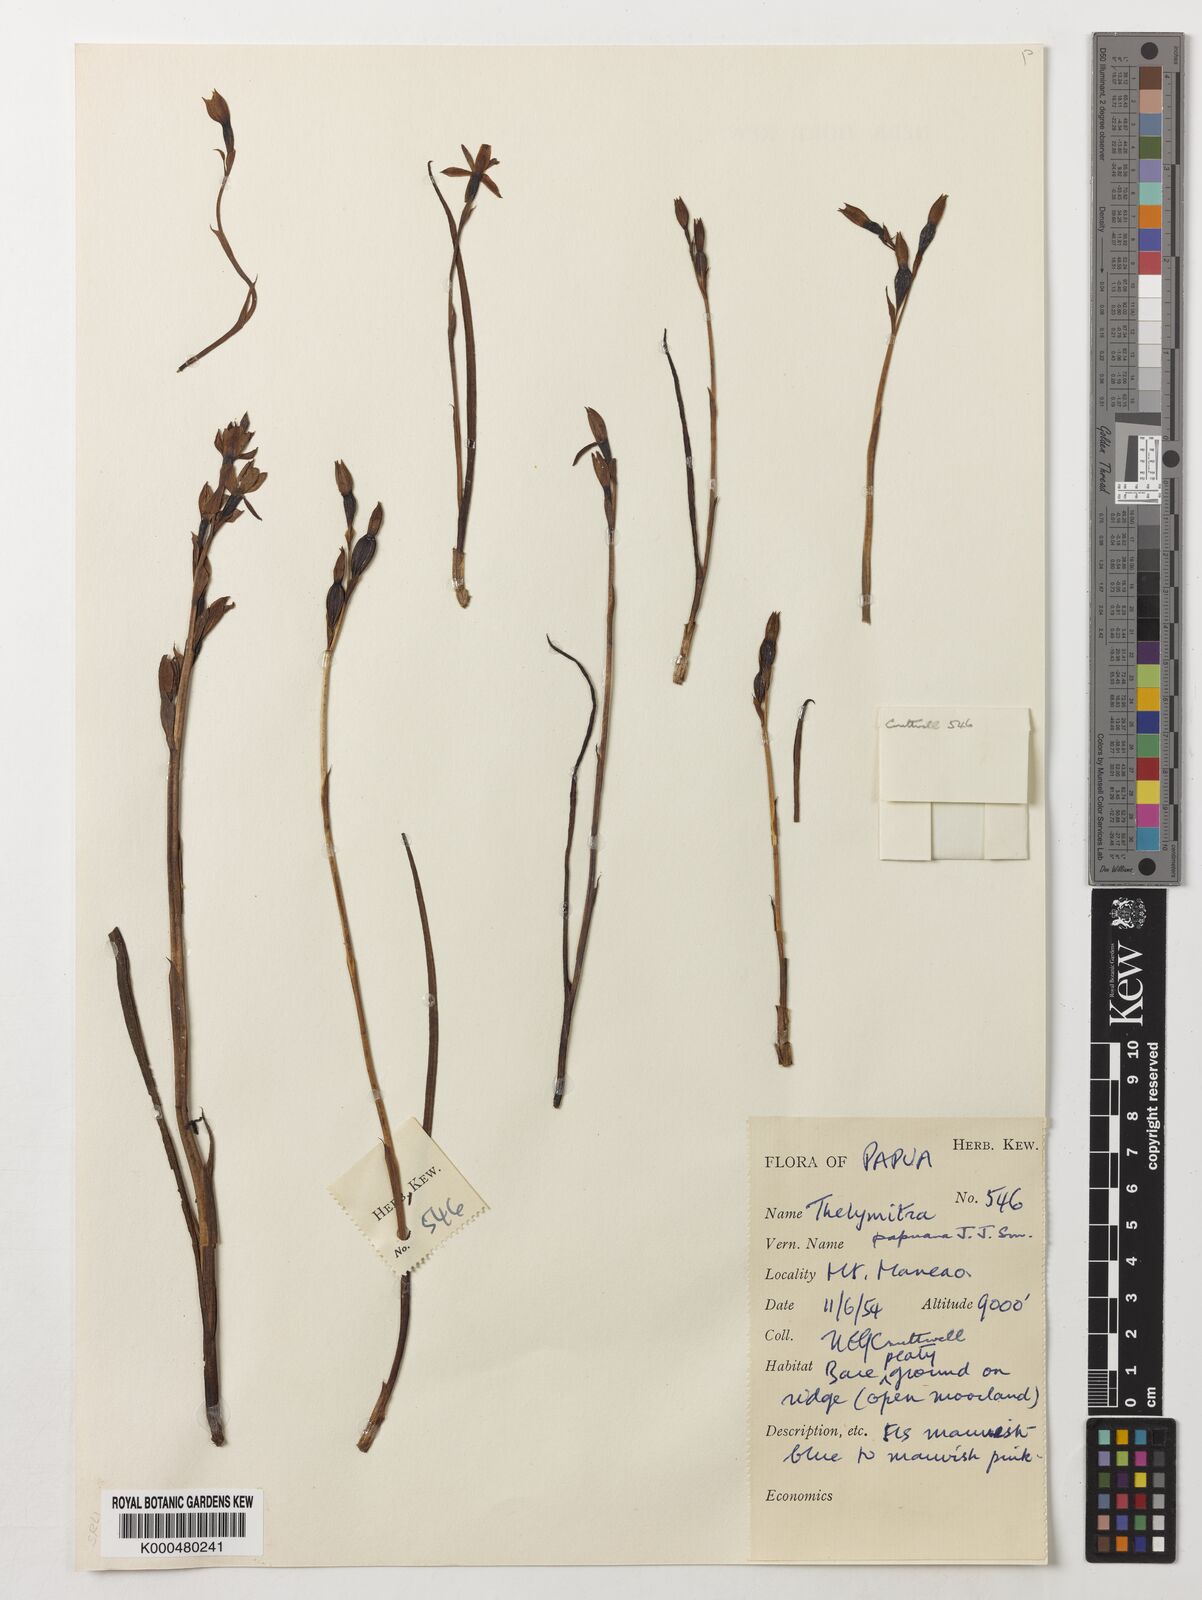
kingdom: Plantae
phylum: Tracheophyta
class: Liliopsida
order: Asparagales
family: Orchidaceae
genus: Thelymitra
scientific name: Thelymitra papuana
